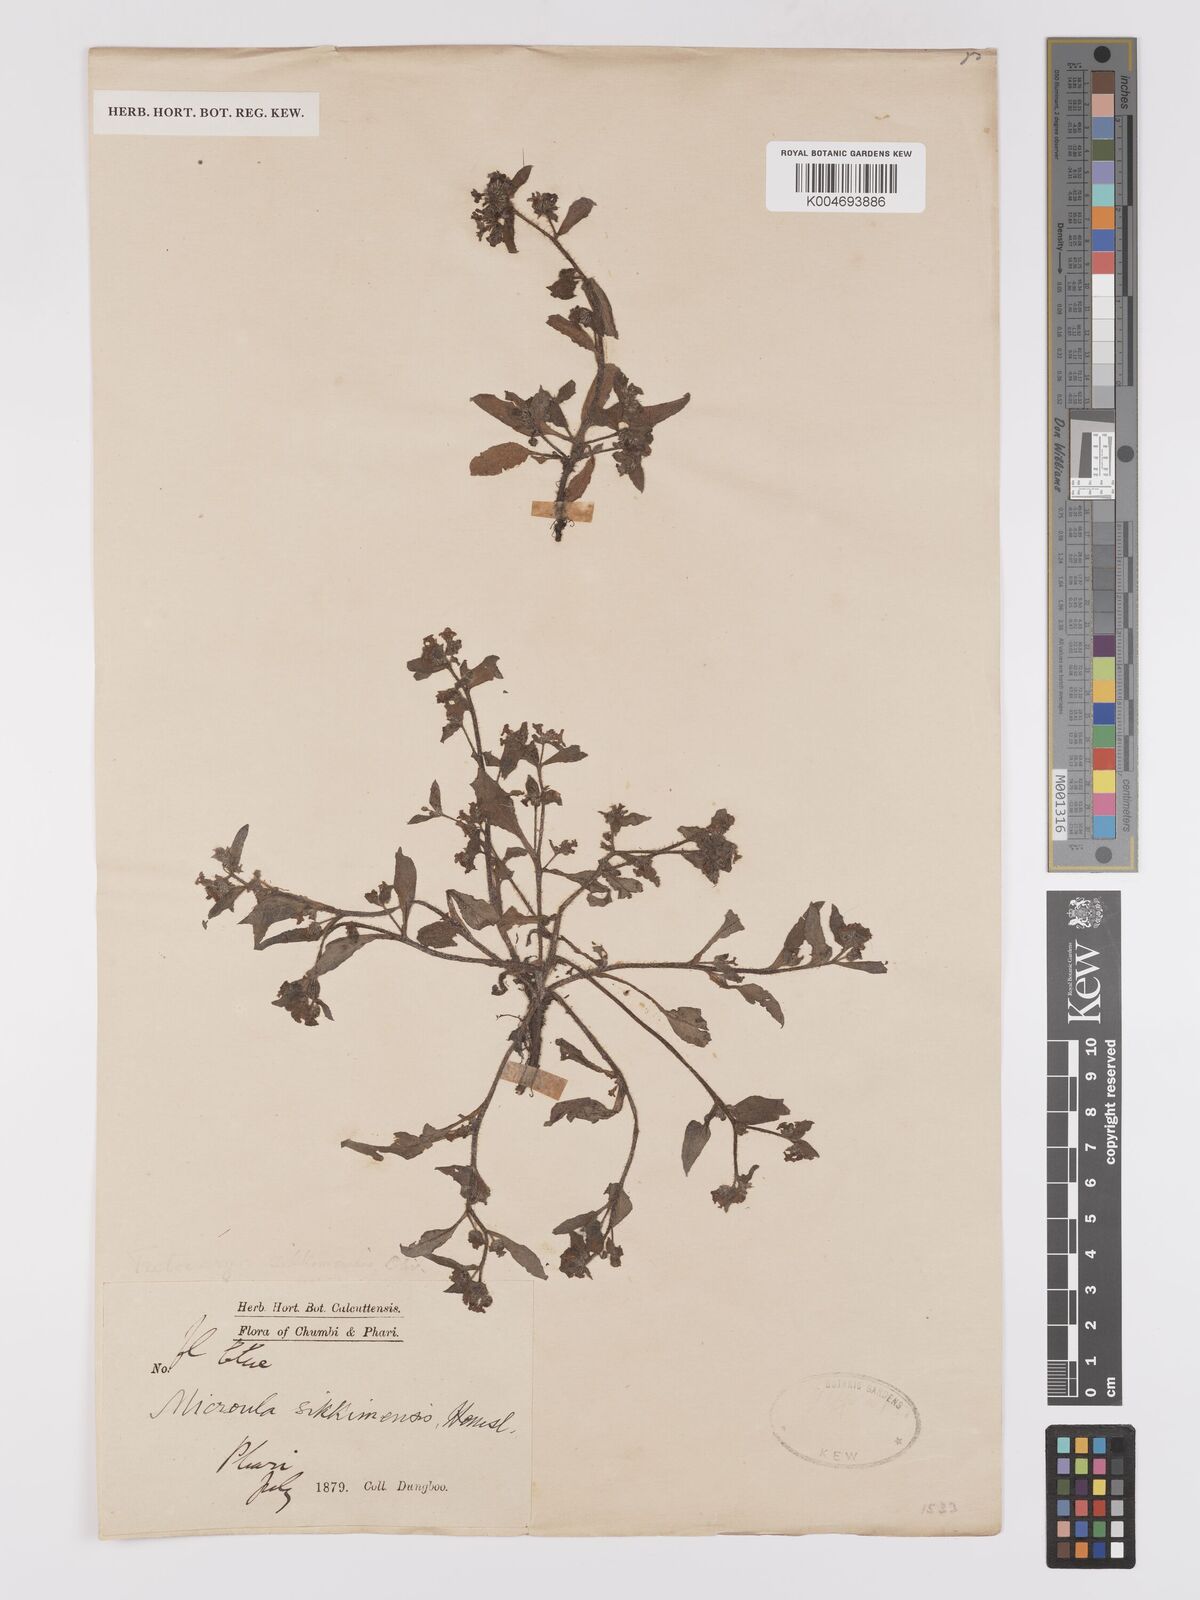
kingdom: Plantae
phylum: Tracheophyta
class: Magnoliopsida
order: Boraginales
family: Boraginaceae
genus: Microula
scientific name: Microula sikkimensis
